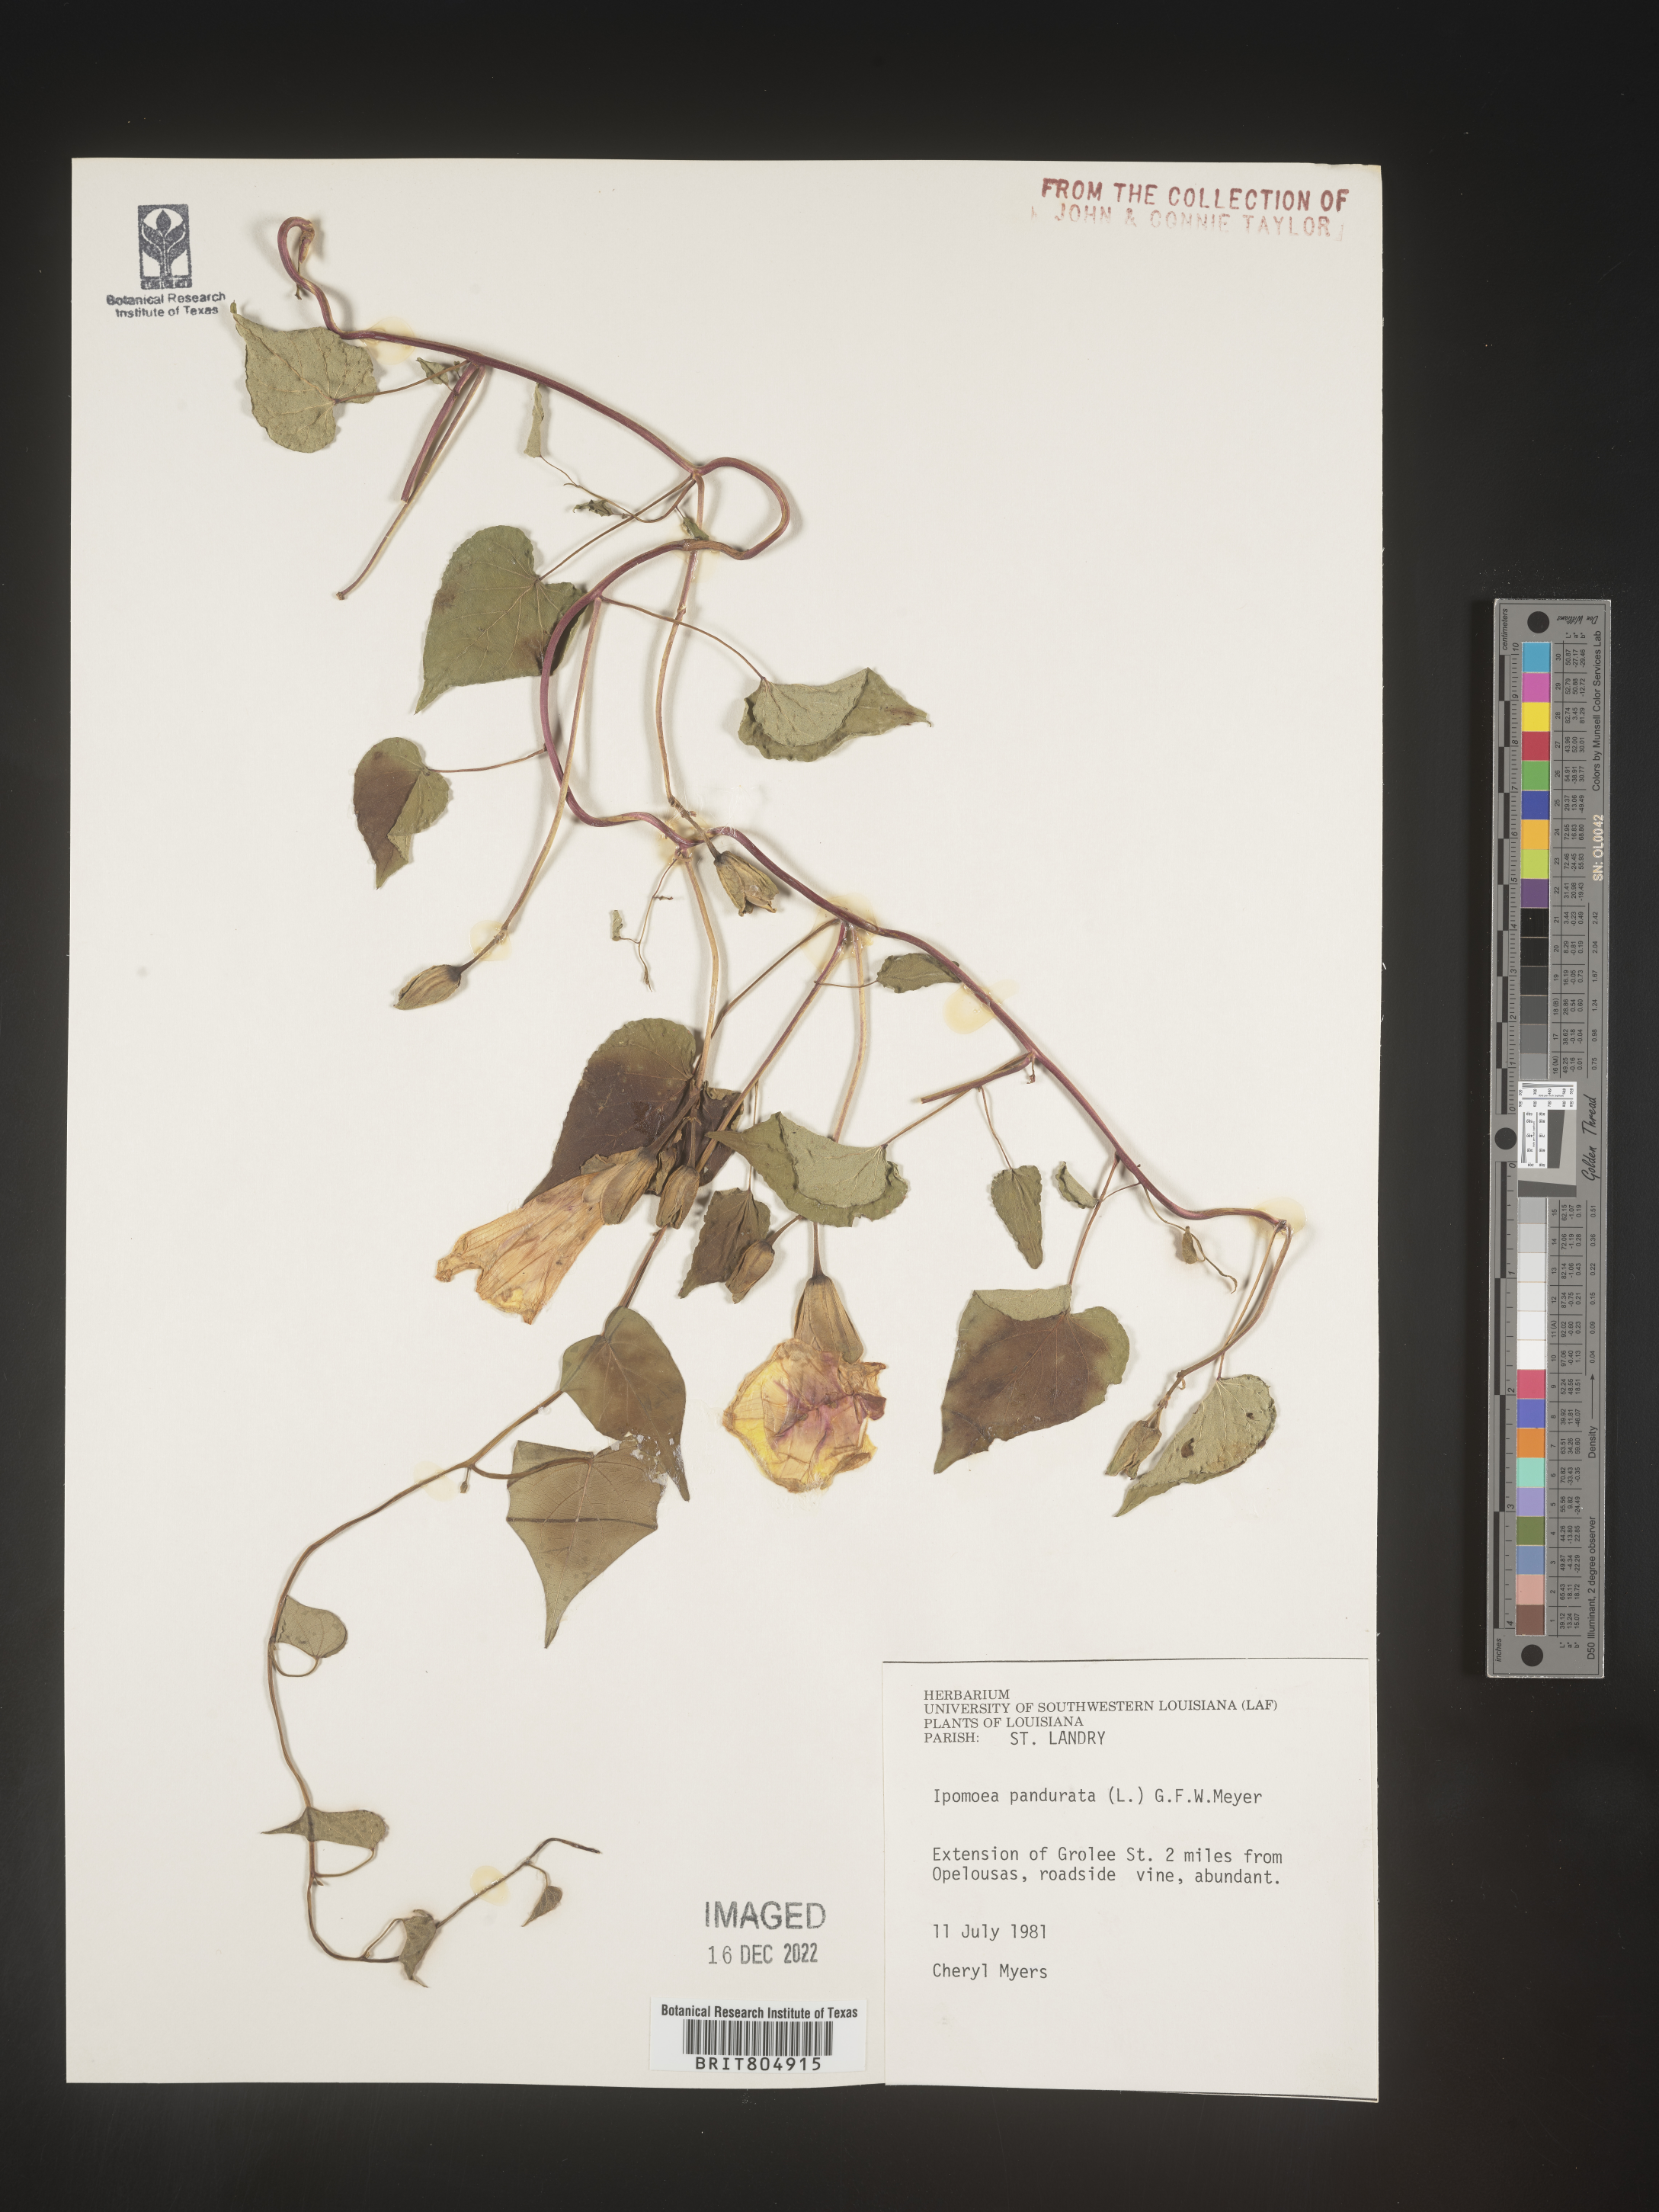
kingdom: Plantae
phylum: Tracheophyta
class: Magnoliopsida
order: Solanales
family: Convolvulaceae
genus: Ipomoea
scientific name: Ipomoea pandurata
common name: Man-of-the-earth
